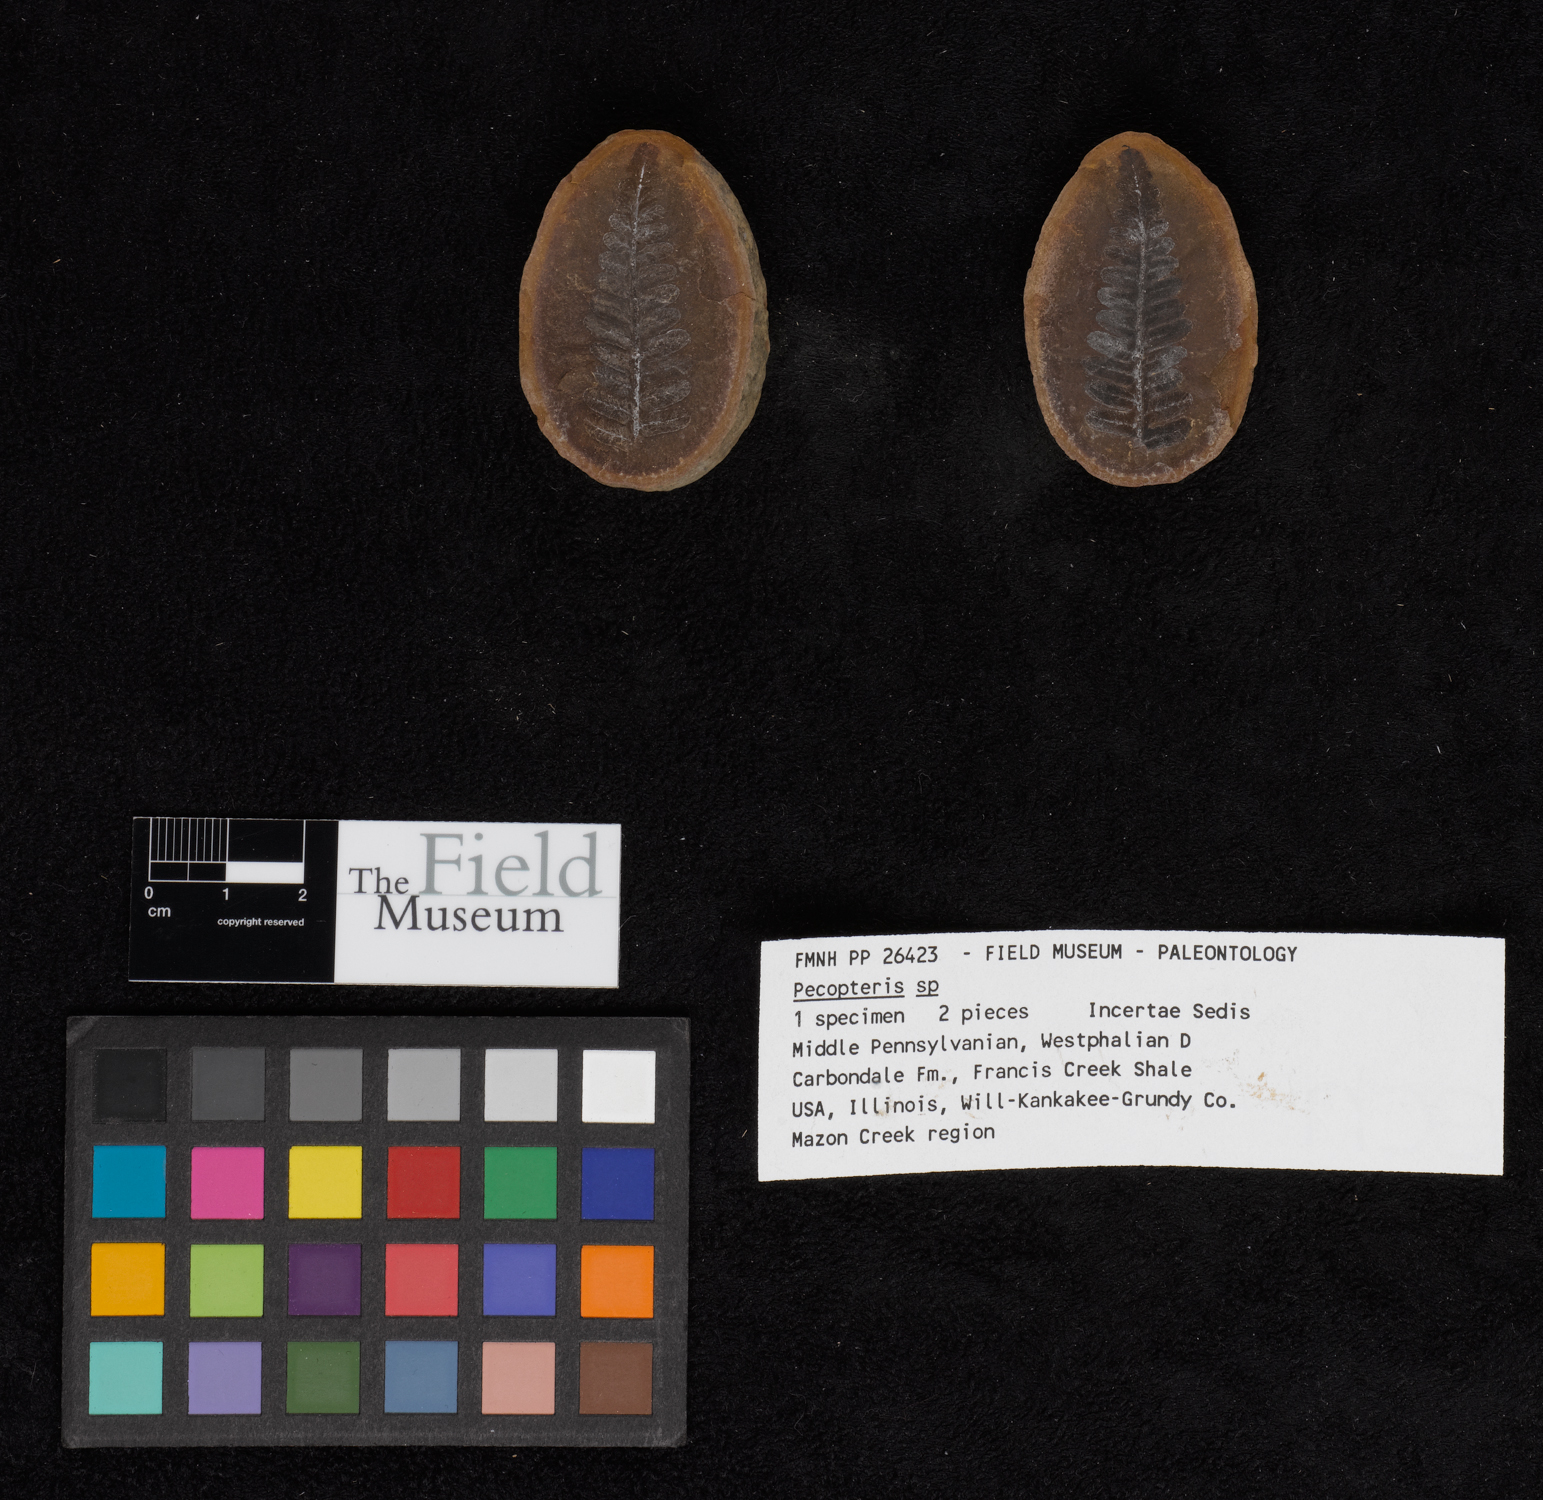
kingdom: Plantae
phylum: Tracheophyta
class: Polypodiopsida
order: Marattiales
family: Asterothecaceae
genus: Pecopteris
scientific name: Pecopteris
